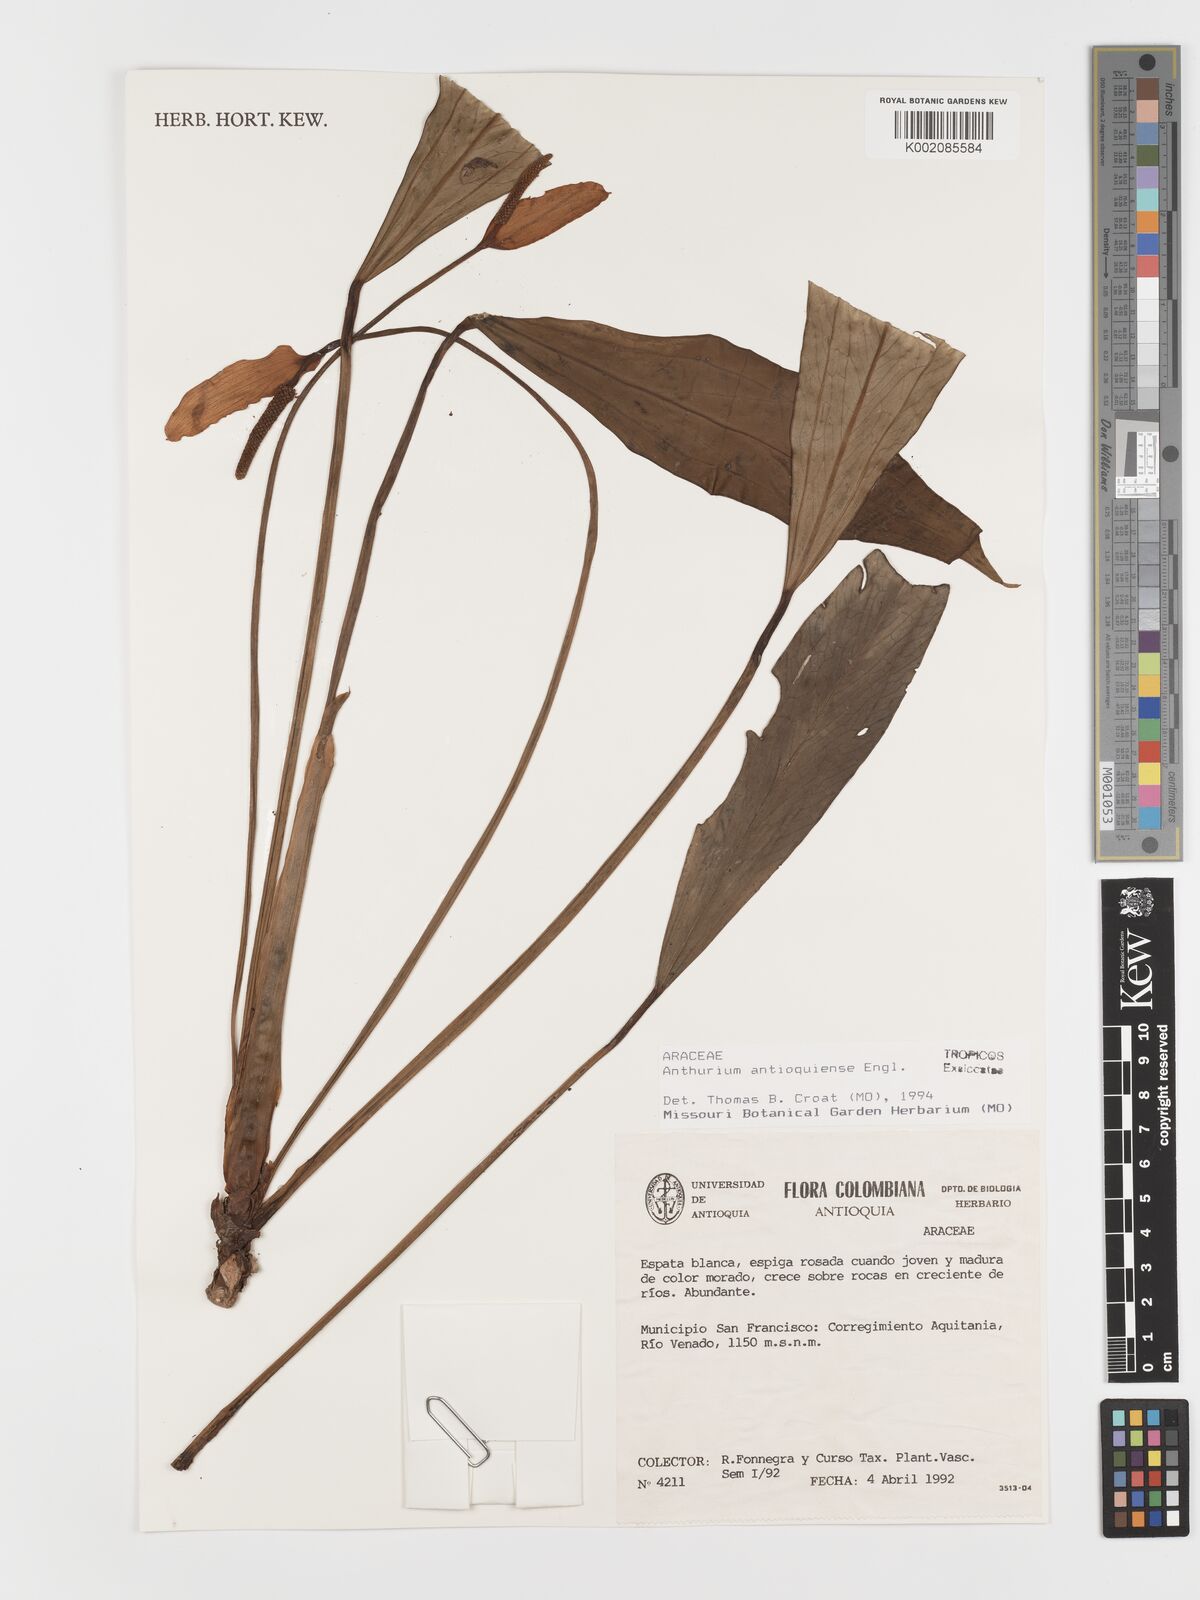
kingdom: Plantae
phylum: Tracheophyta
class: Liliopsida
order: Alismatales
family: Araceae
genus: Anthurium
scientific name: Anthurium antioquiense
